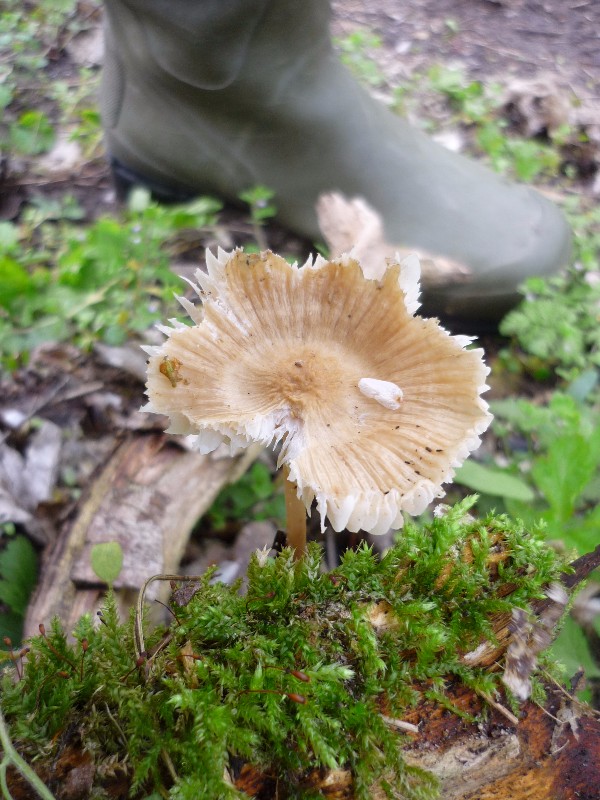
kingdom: Fungi
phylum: Basidiomycota
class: Agaricomycetes
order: Agaricales
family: Mycenaceae
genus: Mycena
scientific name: Mycena galericulata
